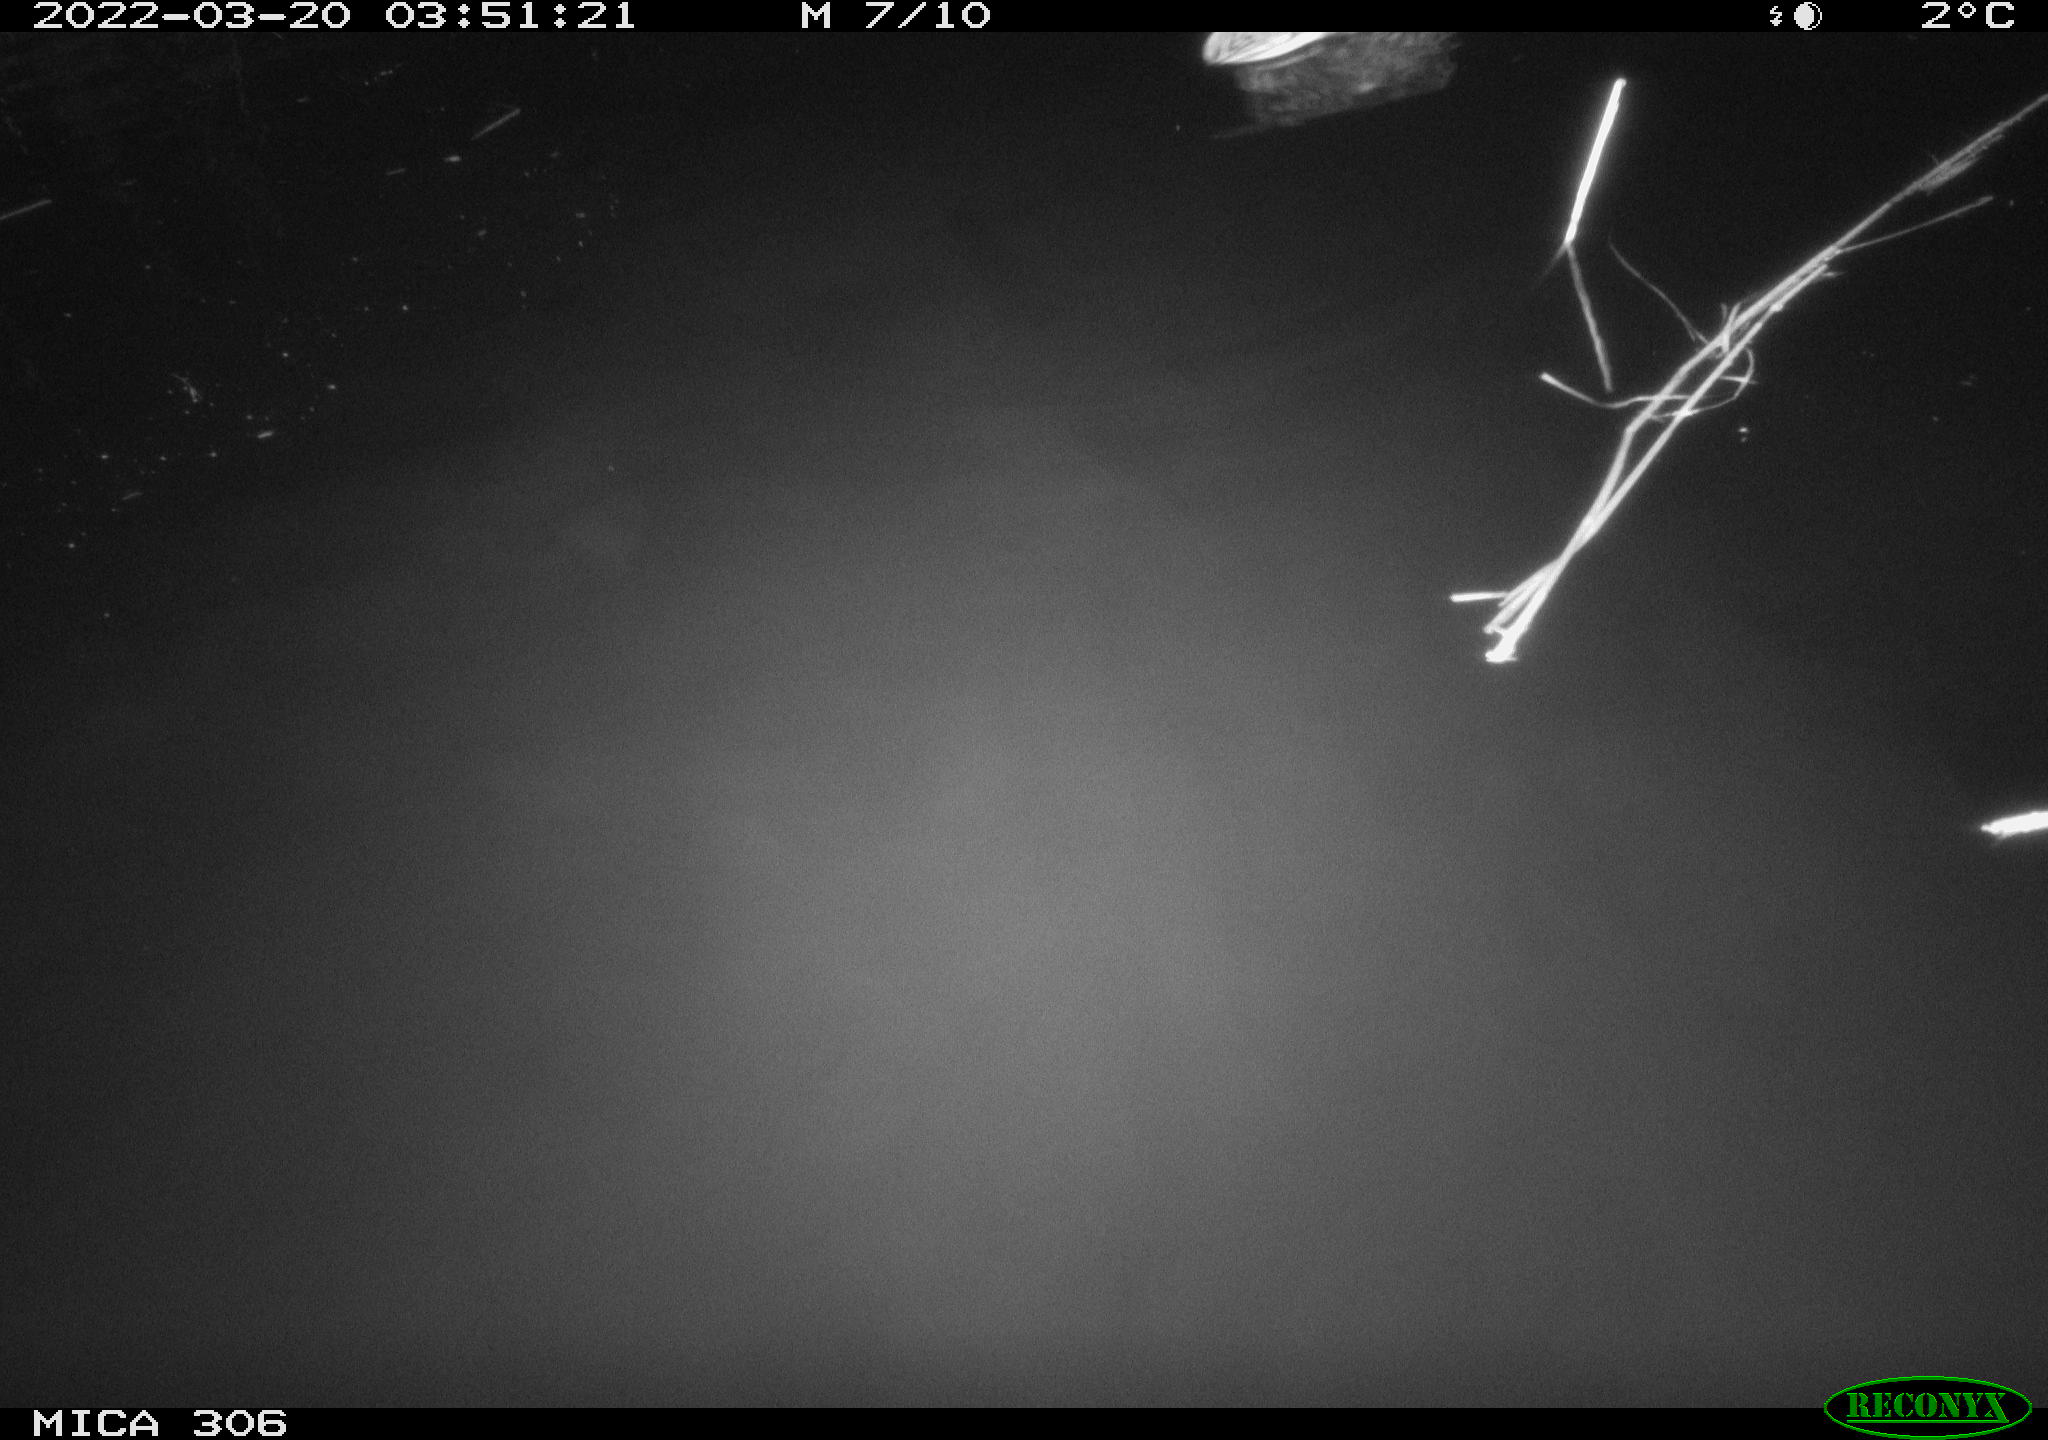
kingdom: Animalia
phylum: Chordata
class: Aves
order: Anseriformes
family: Anatidae
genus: Anas
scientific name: Anas platyrhynchos
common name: Mallard
